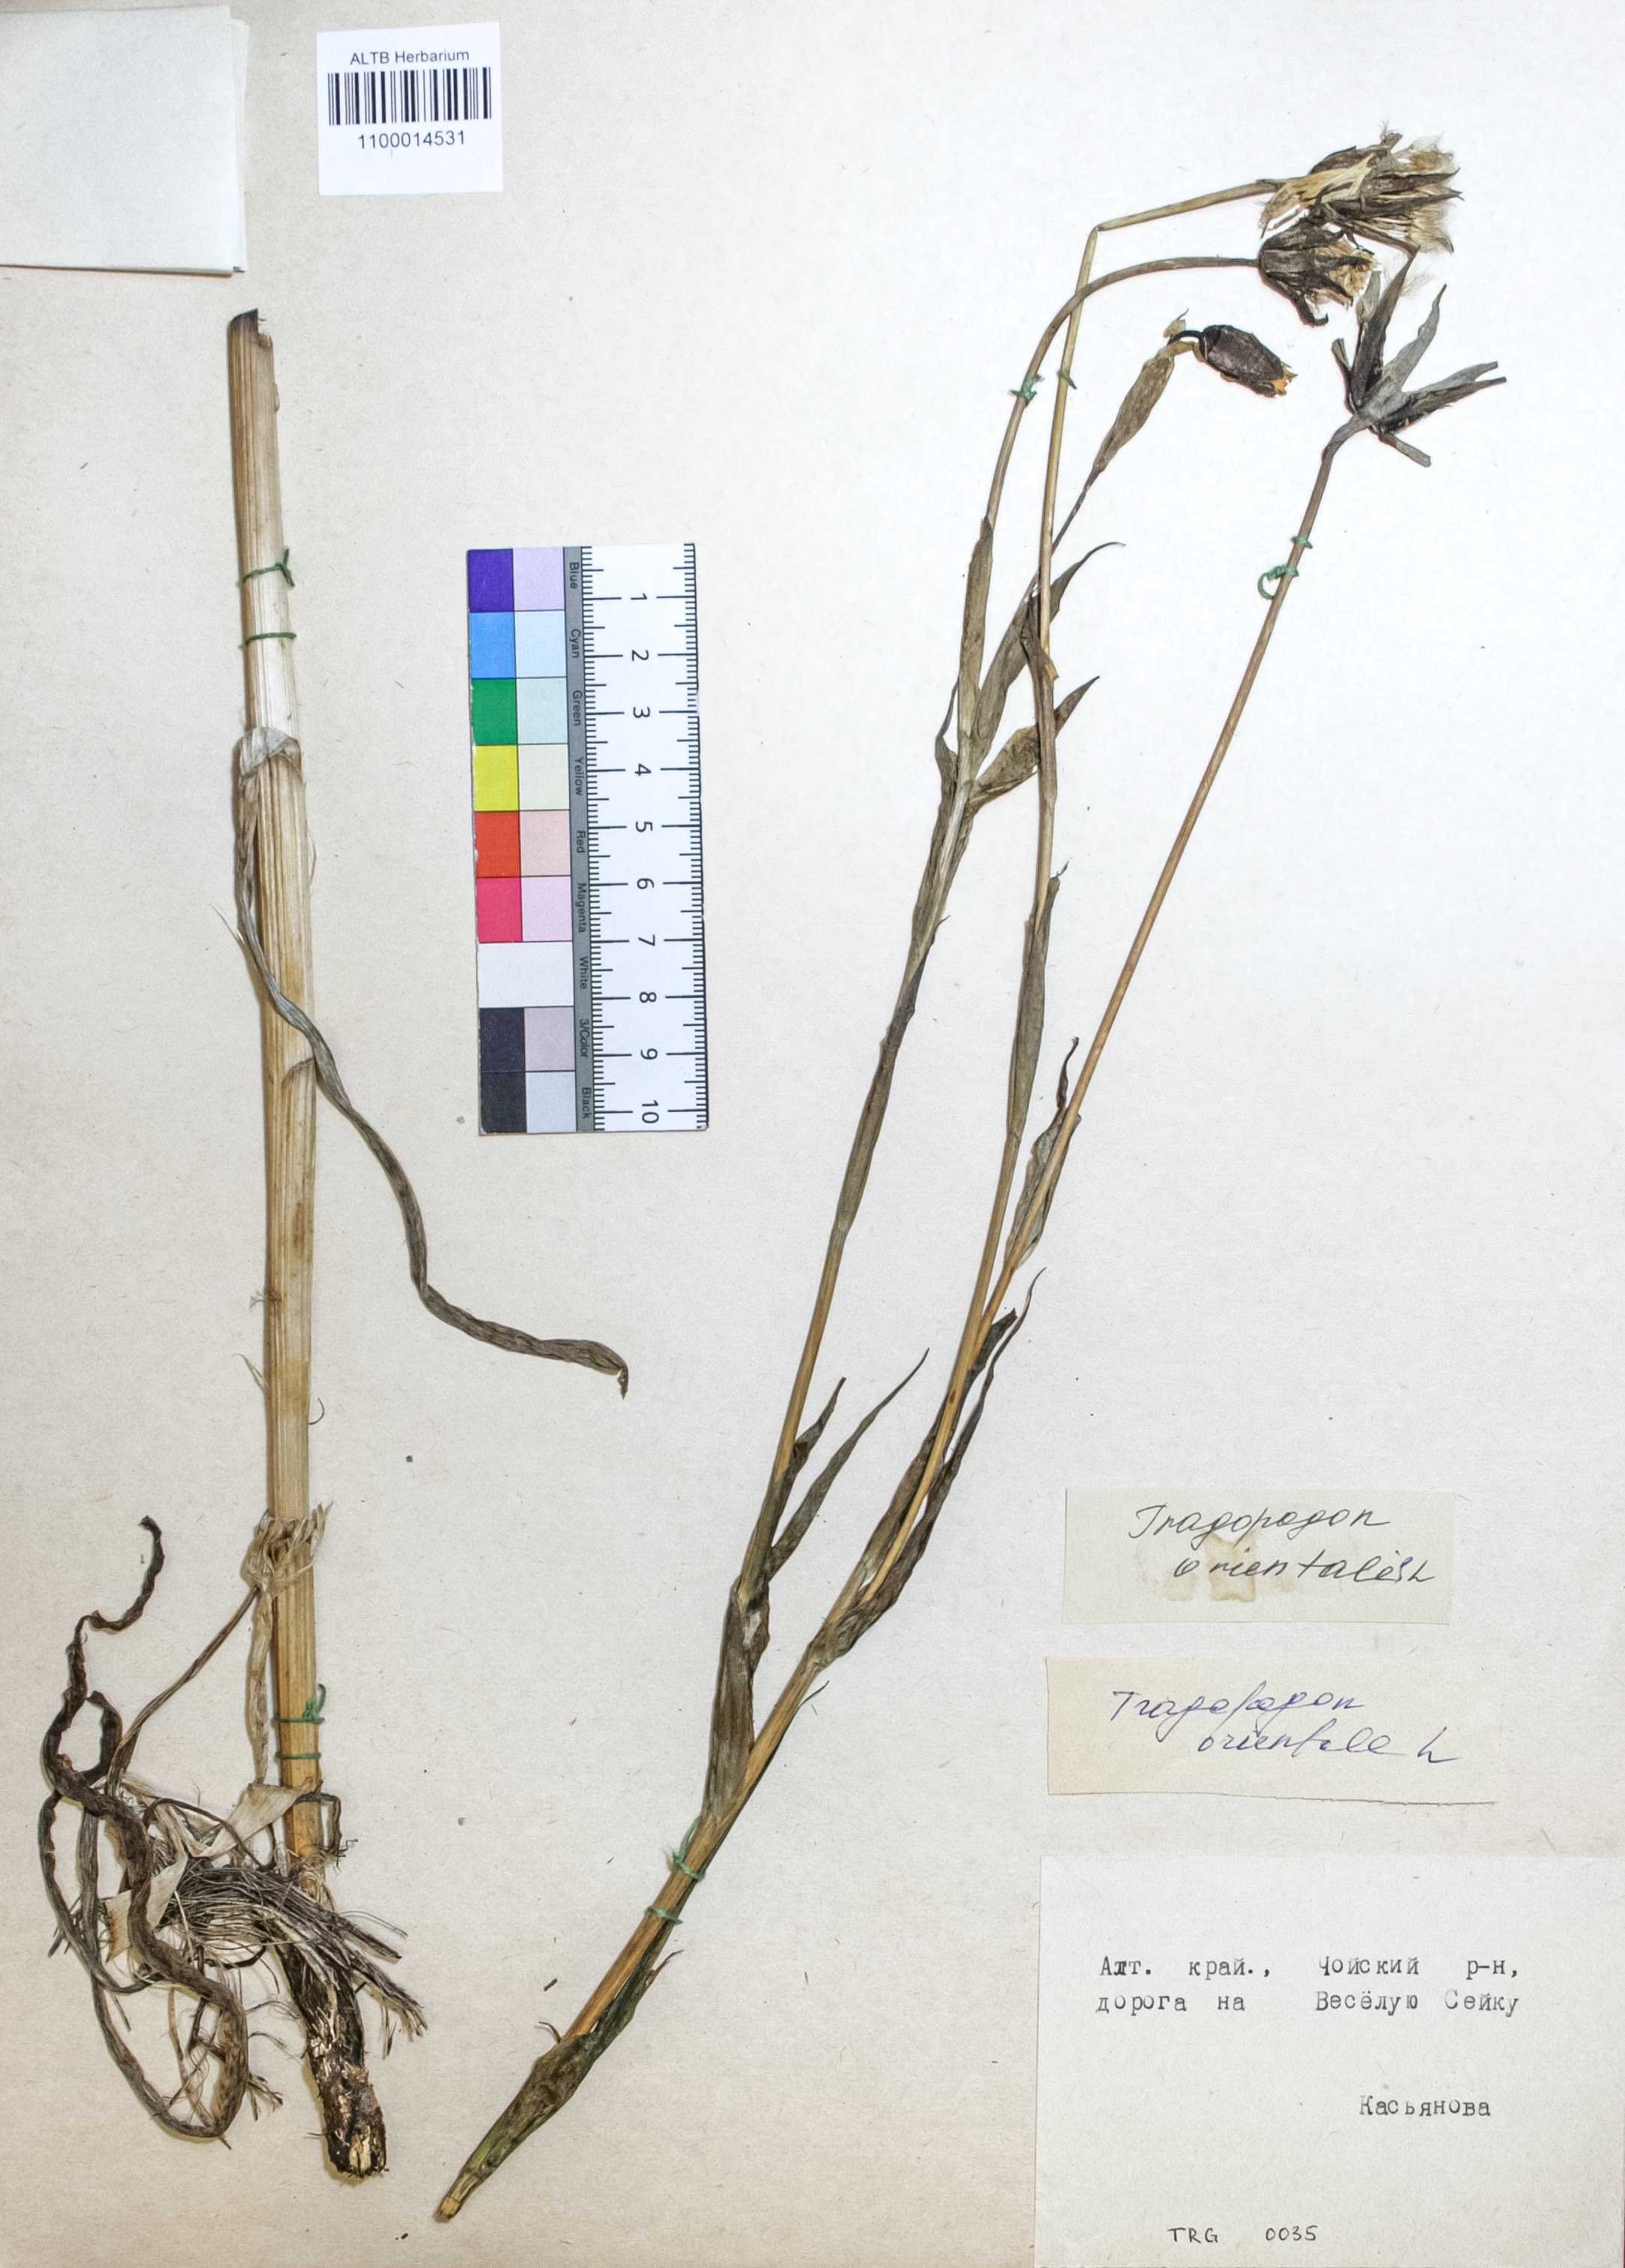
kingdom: Plantae
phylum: Tracheophyta
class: Magnoliopsida
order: Asterales
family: Asteraceae
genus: Tragopogon
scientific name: Tragopogon orientalis
